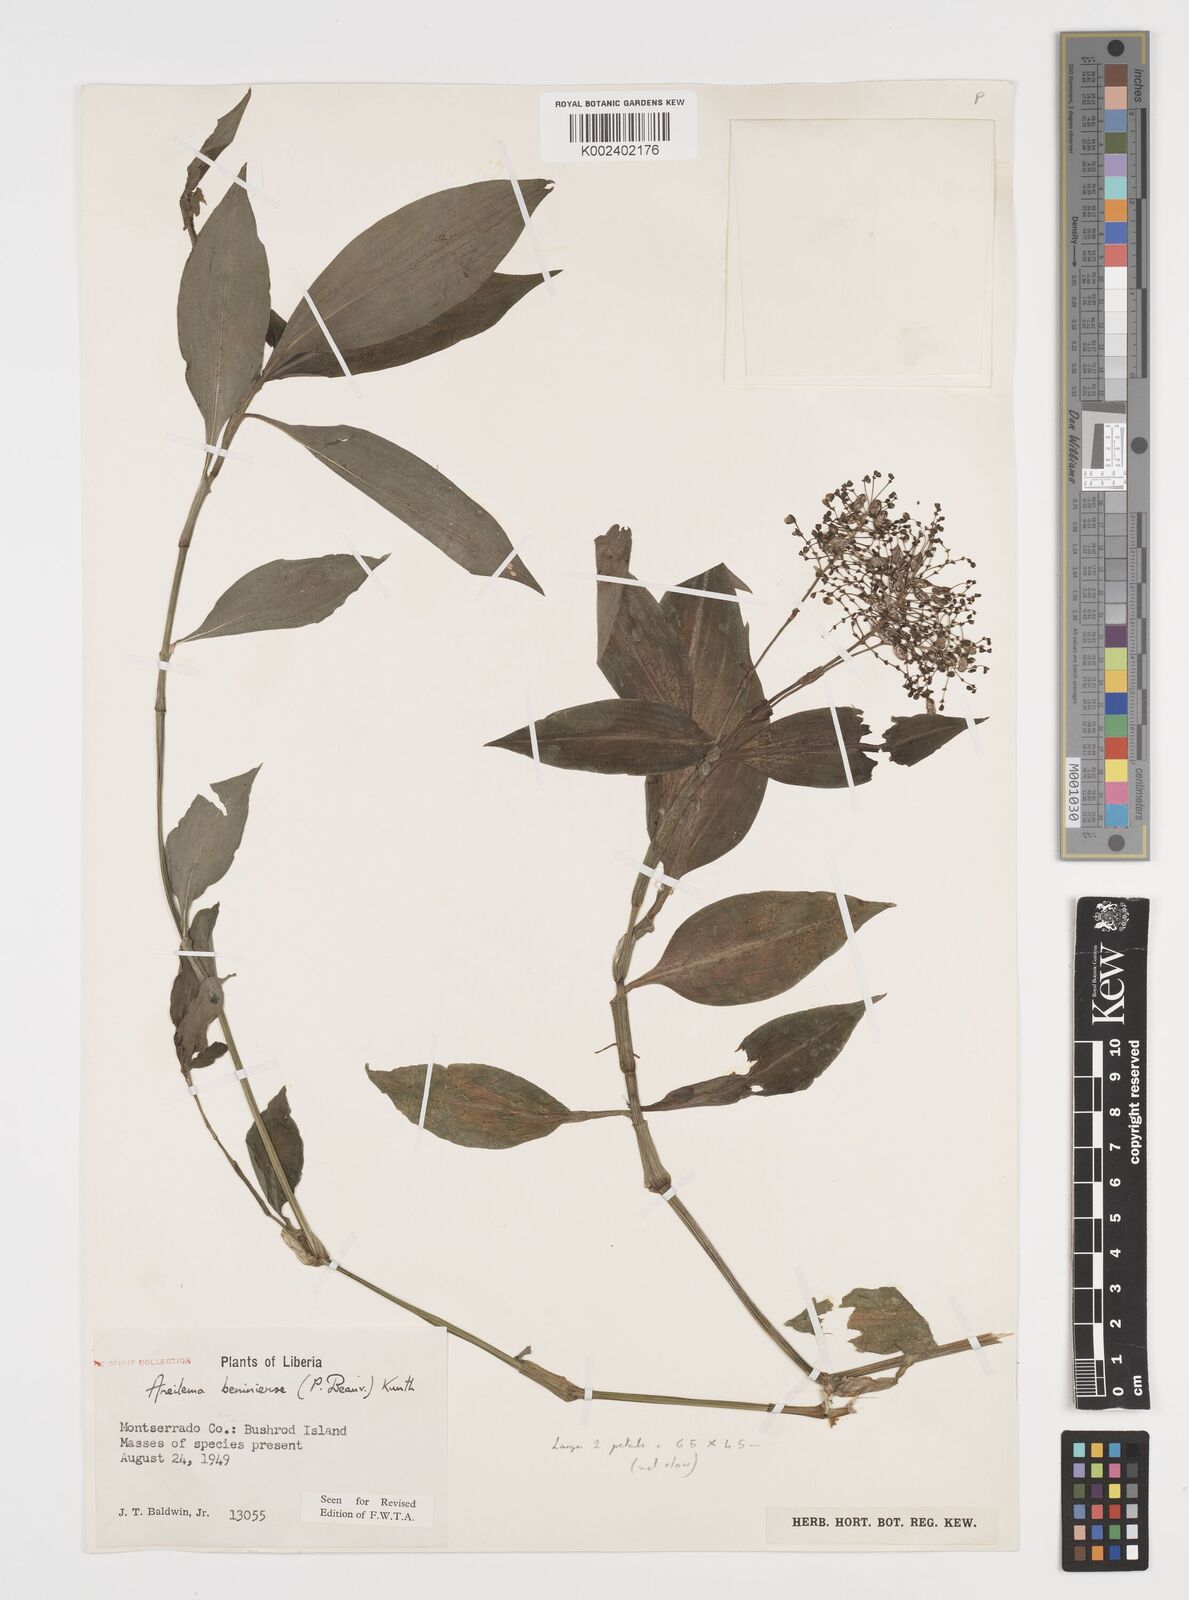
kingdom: Plantae
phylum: Tracheophyta
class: Liliopsida
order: Commelinales
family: Commelinaceae
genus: Aneilema
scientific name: Aneilema beniniense
